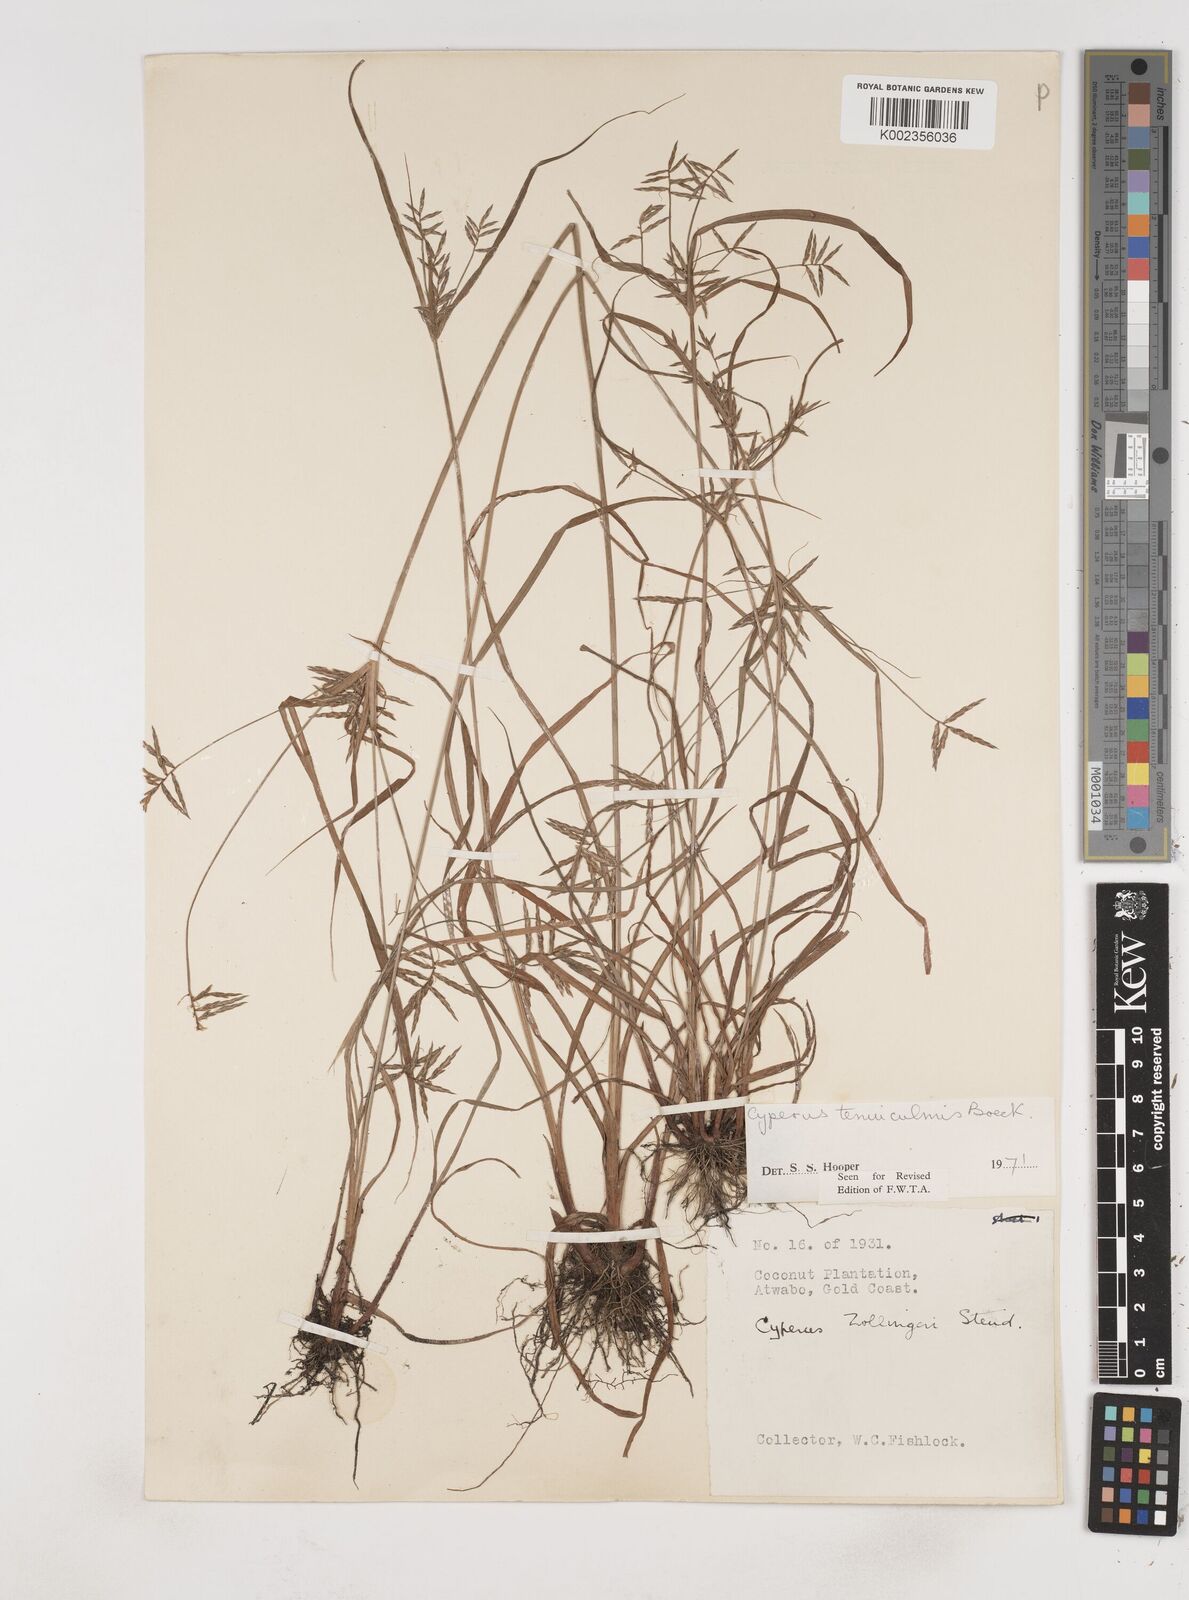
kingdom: Plantae
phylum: Tracheophyta
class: Liliopsida
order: Poales
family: Cyperaceae
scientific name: Cyperaceae
